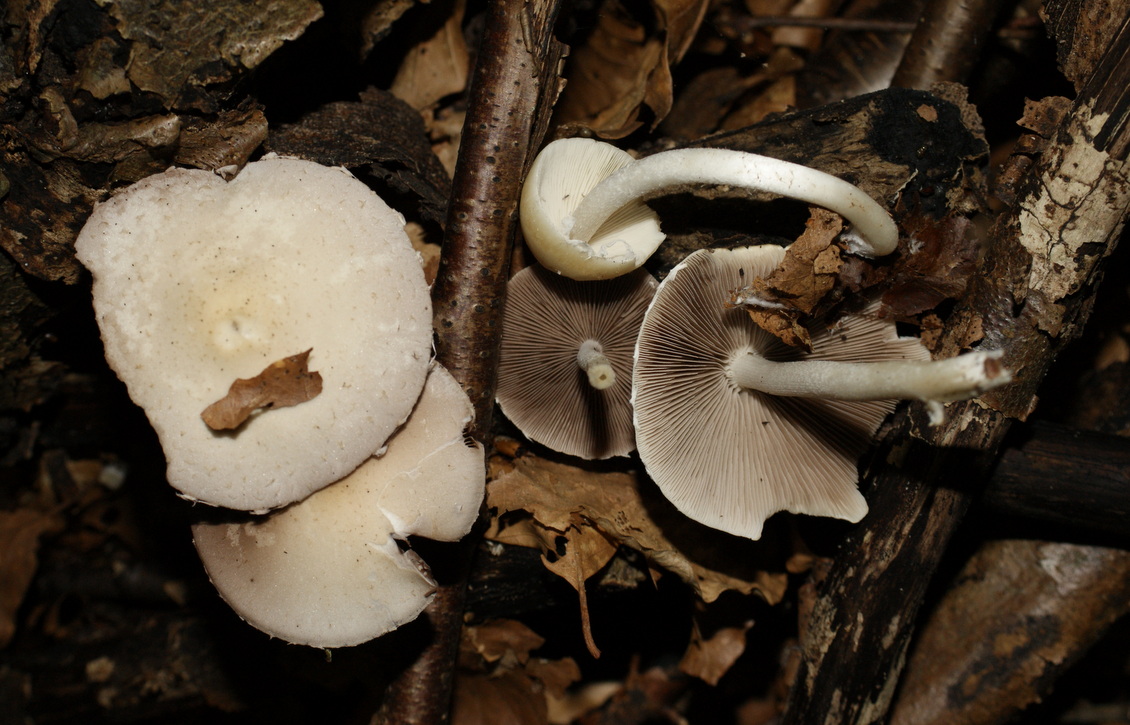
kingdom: Fungi
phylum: Basidiomycota
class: Agaricomycetes
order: Agaricales
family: Psathyrellaceae
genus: Candolleomyces
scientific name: Candolleomyces candolleanus
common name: Candolles mørkhat
